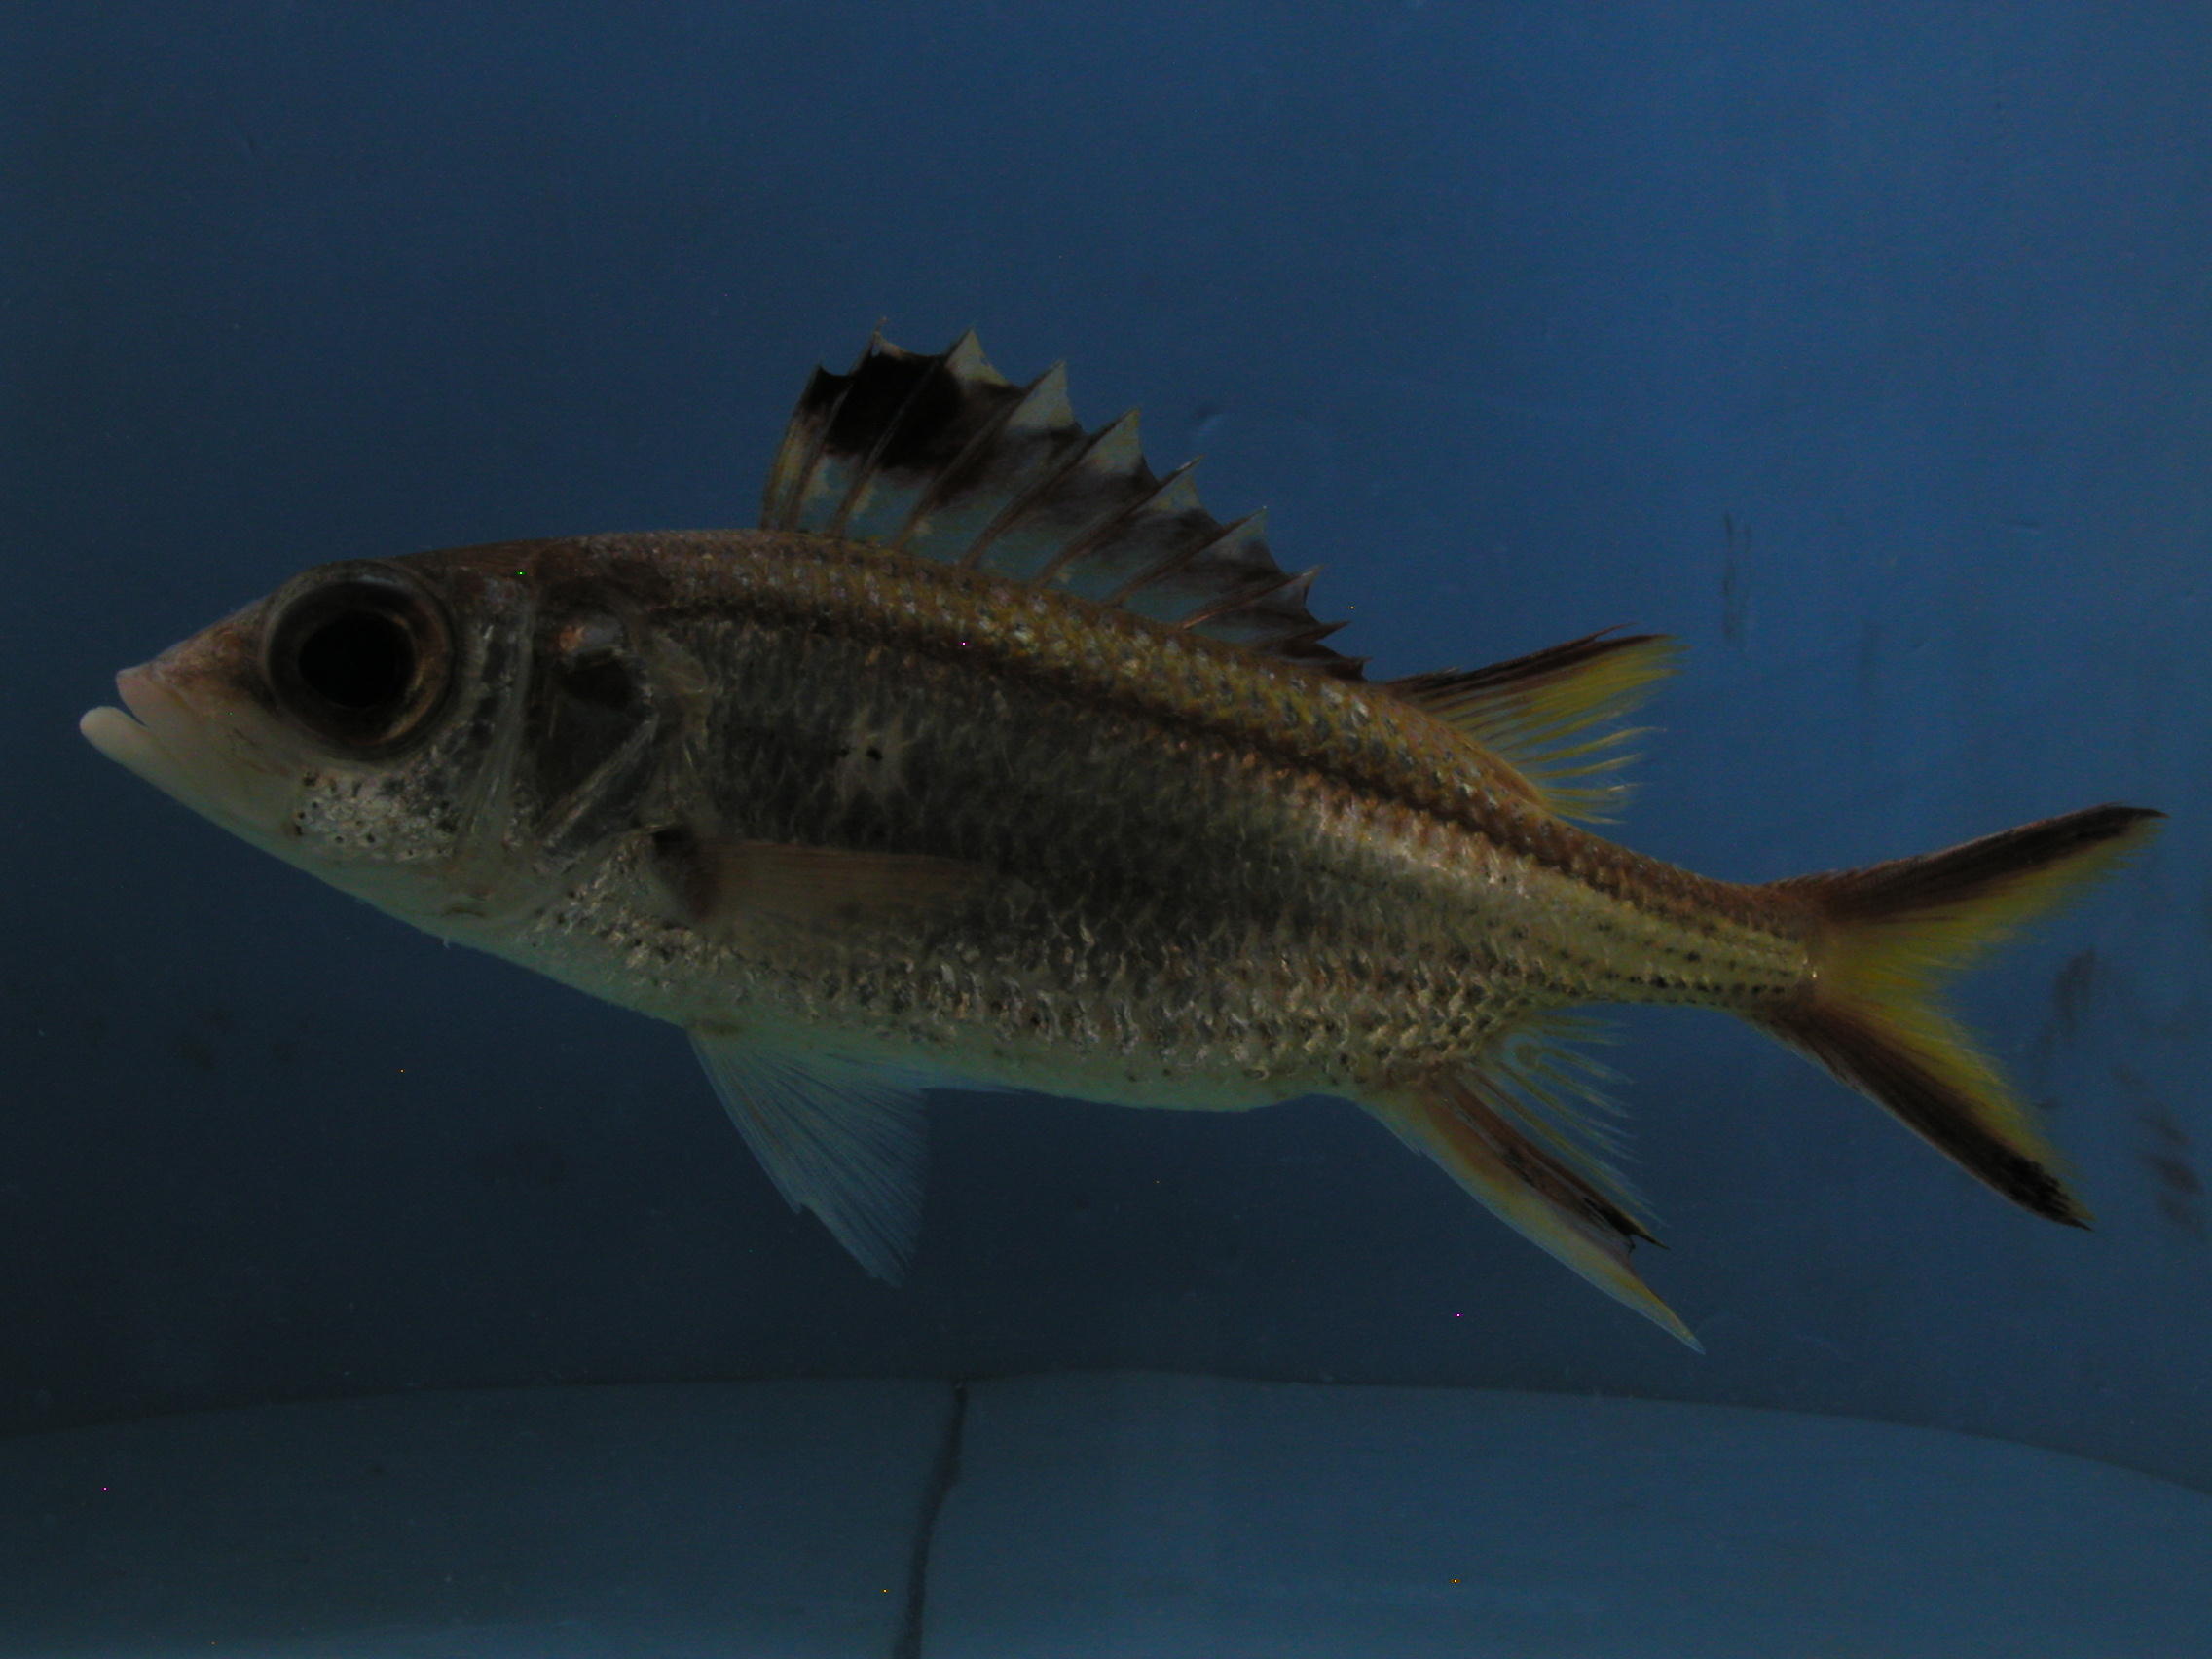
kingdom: Animalia
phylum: Chordata
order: Beryciformes
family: Holocentridae
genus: Neoniphon
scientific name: Neoniphon sammara
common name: Sammara squirrelfish
